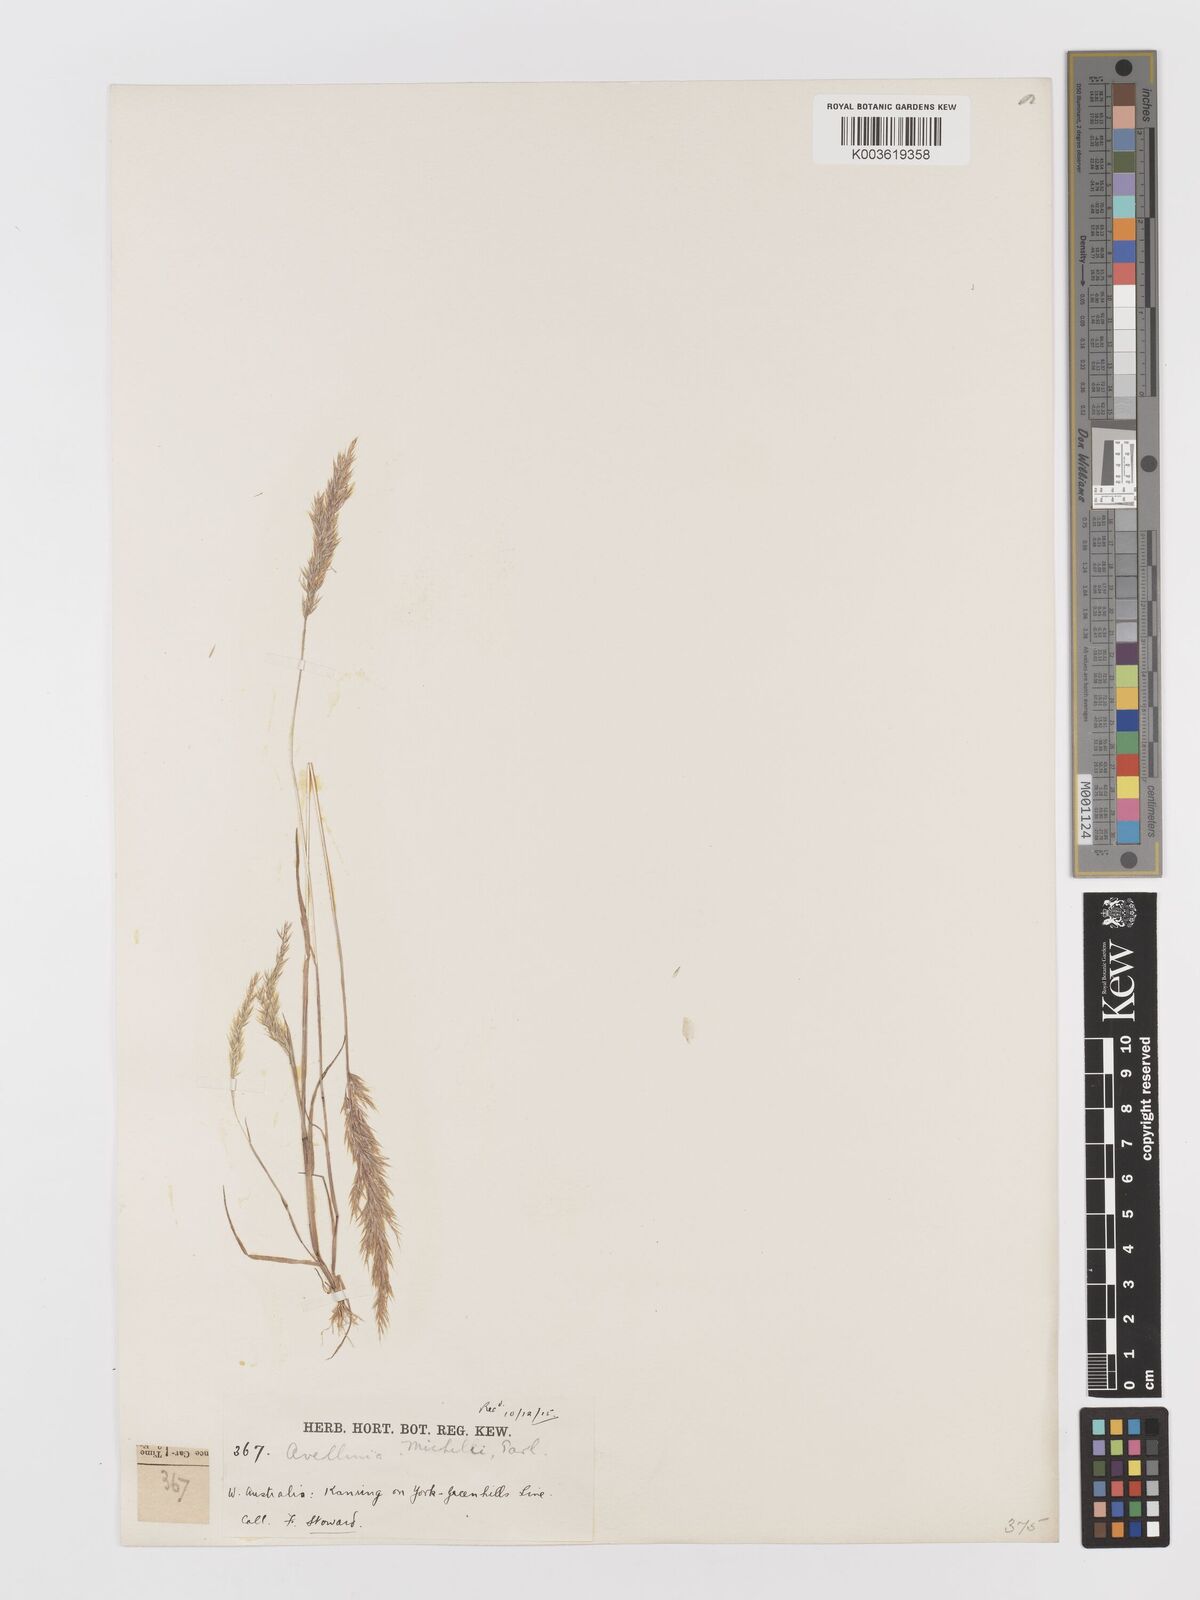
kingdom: Plantae
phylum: Tracheophyta
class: Liliopsida
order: Poales
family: Poaceae
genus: Rostraria
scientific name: Rostraria
